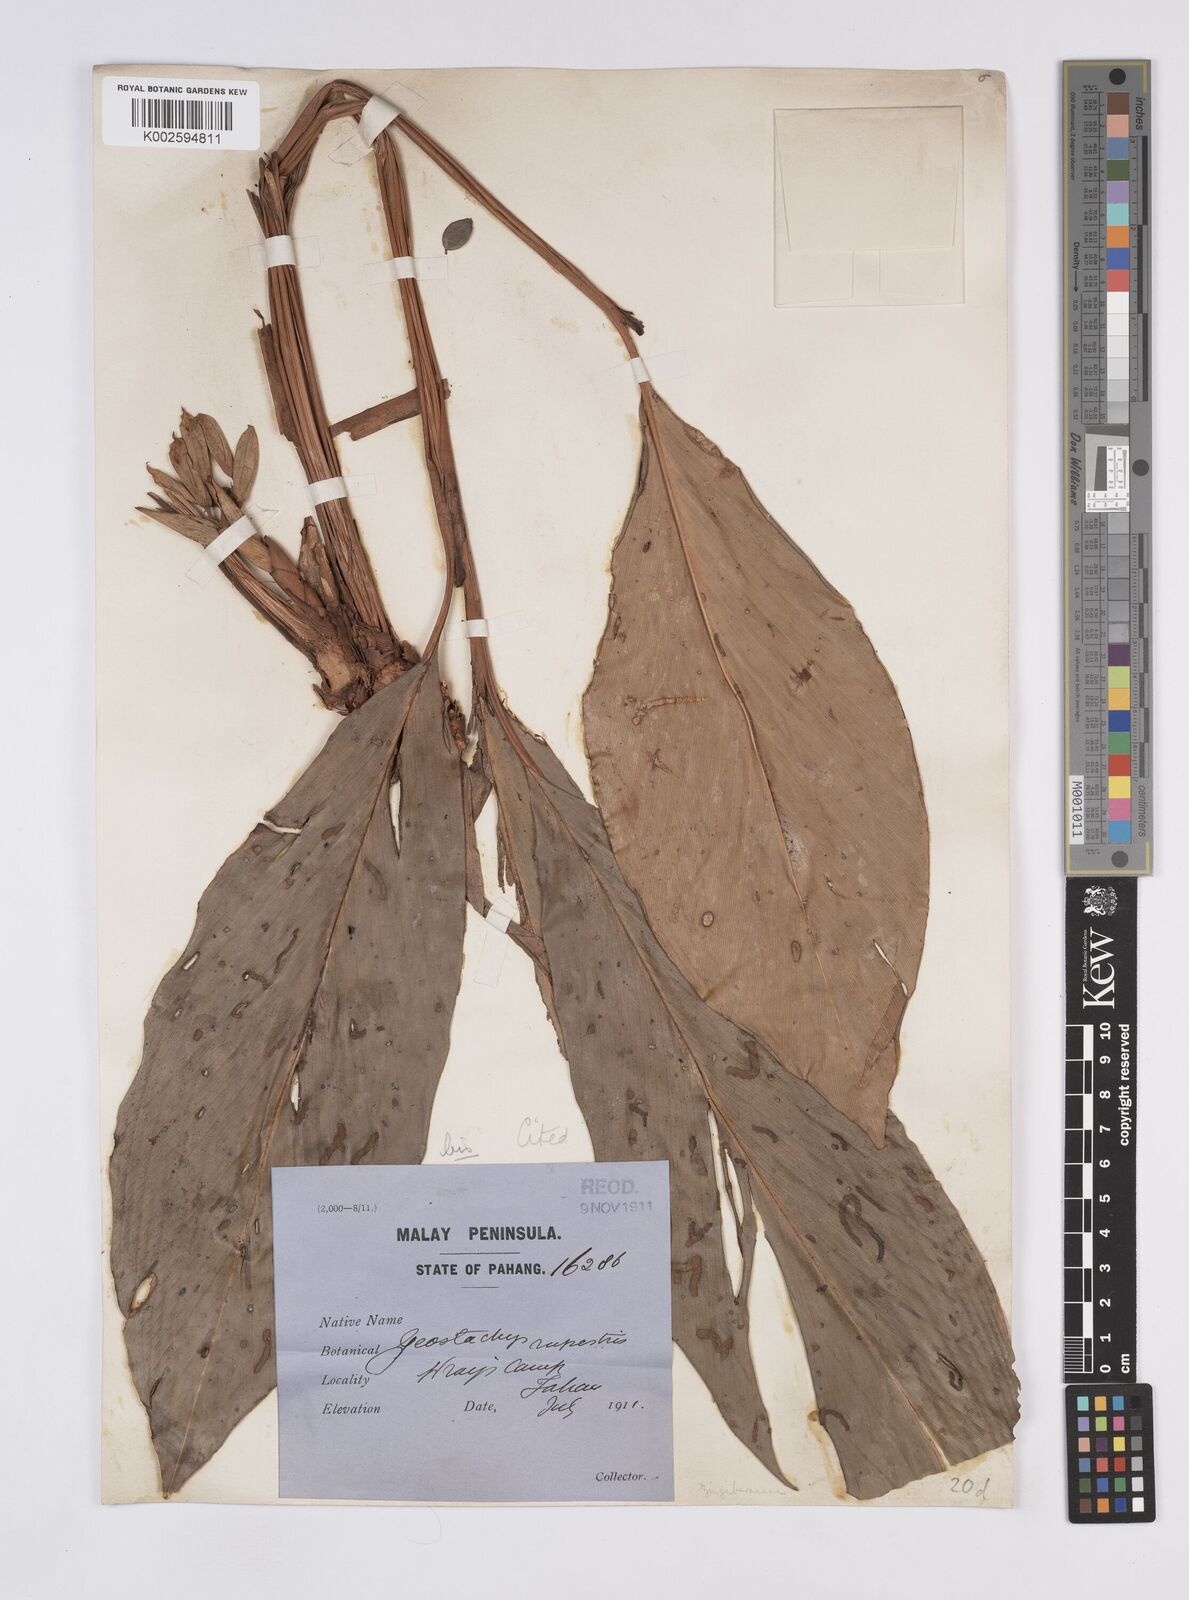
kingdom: Plantae
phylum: Tracheophyta
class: Liliopsida
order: Zingiberales
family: Zingiberaceae
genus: Geostachys
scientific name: Geostachys tahanensis
